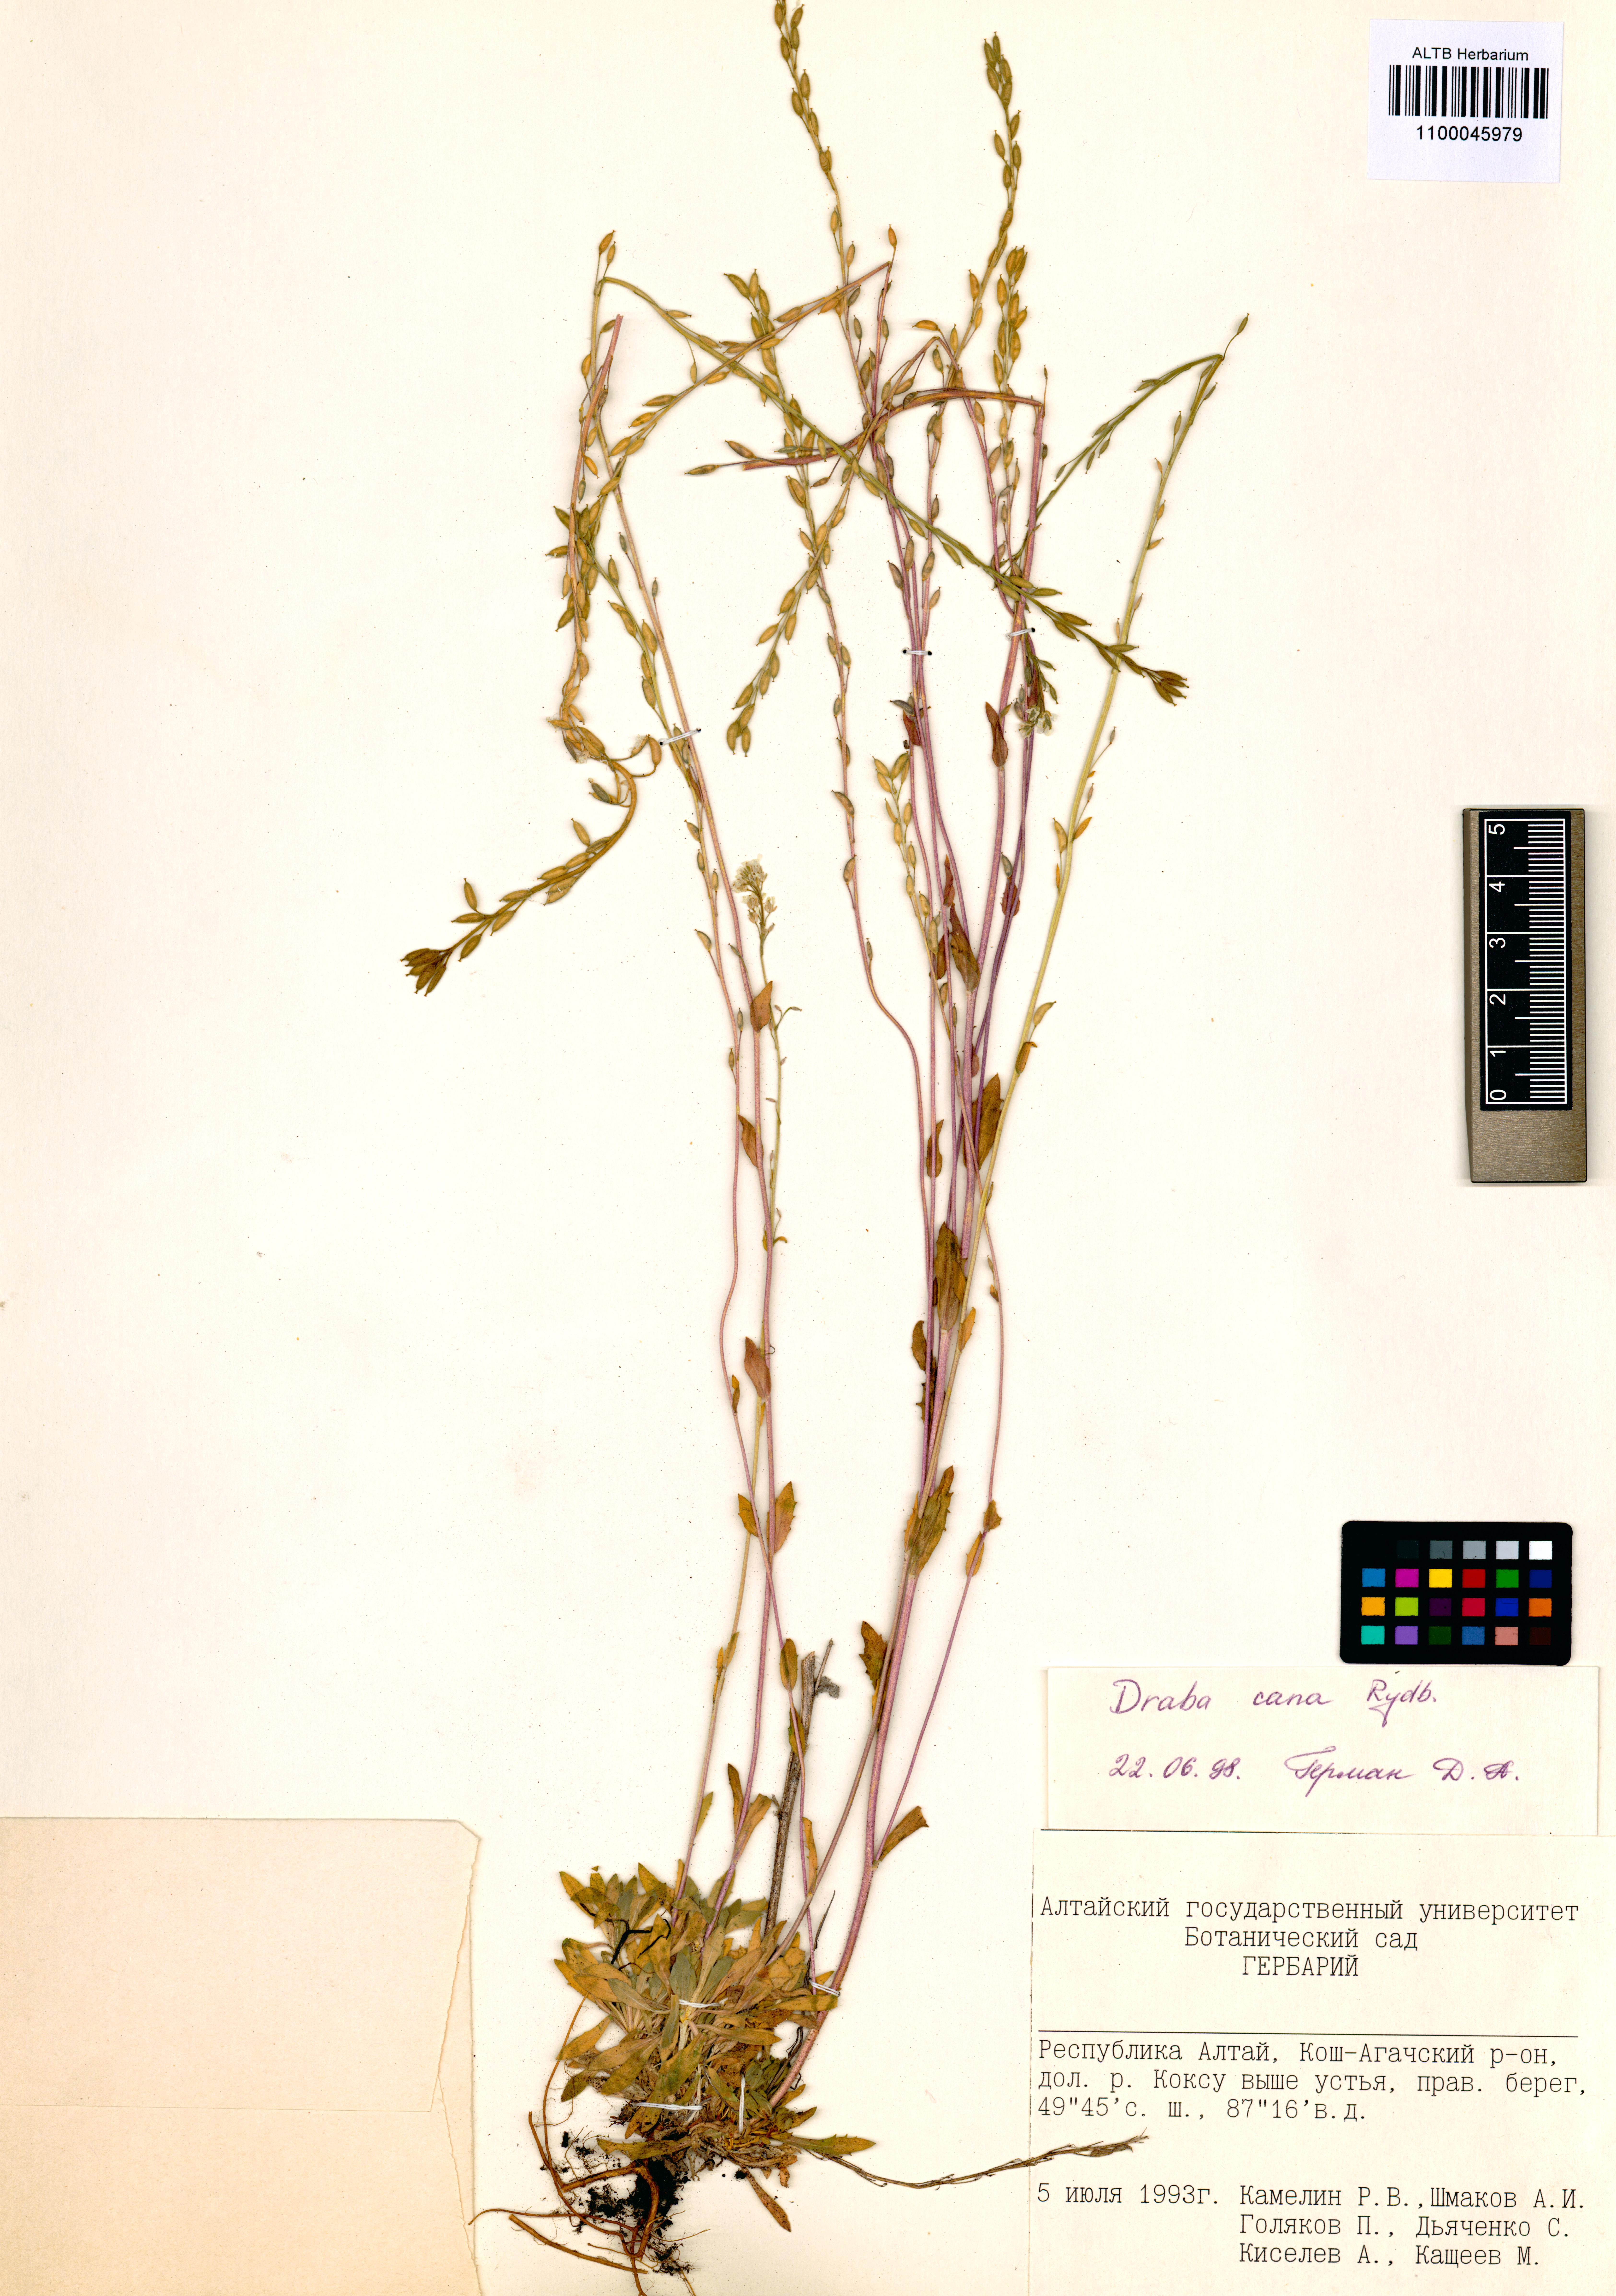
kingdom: Plantae
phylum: Tracheophyta
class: Magnoliopsida
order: Brassicales
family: Brassicaceae
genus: Draba
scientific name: Draba cana
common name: Hoary draba
